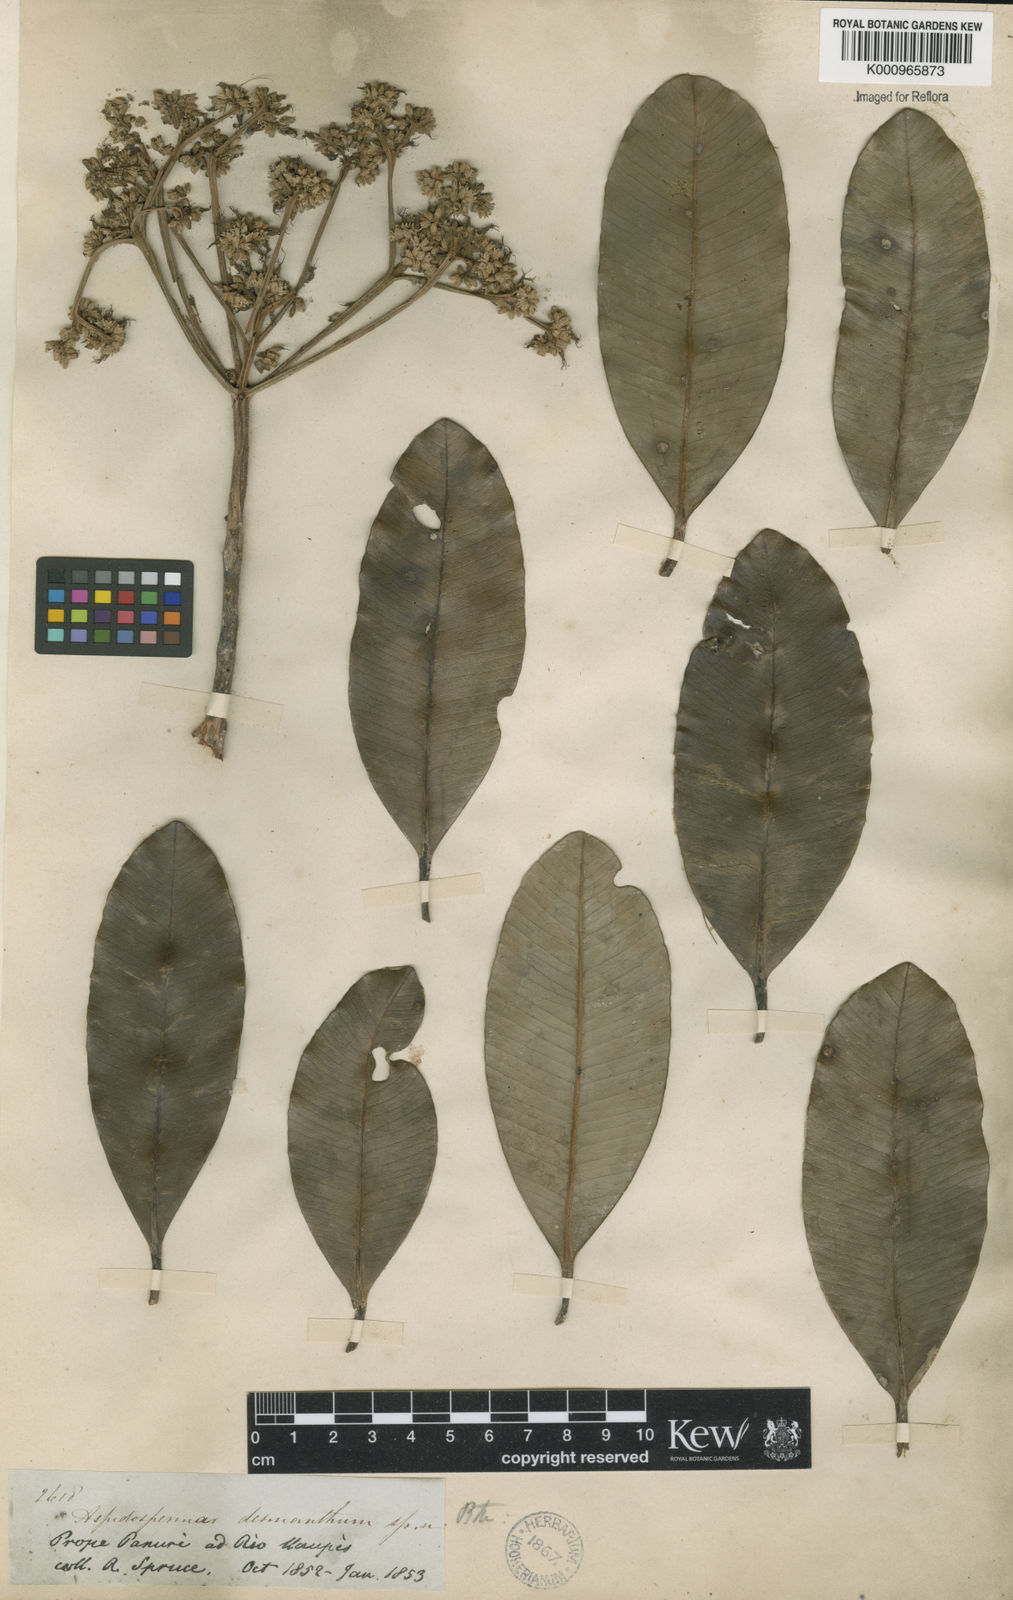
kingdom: Plantae
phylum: Tracheophyta
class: Magnoliopsida
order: Gentianales
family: Apocynaceae
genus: Aspidosperma
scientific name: Aspidosperma album
